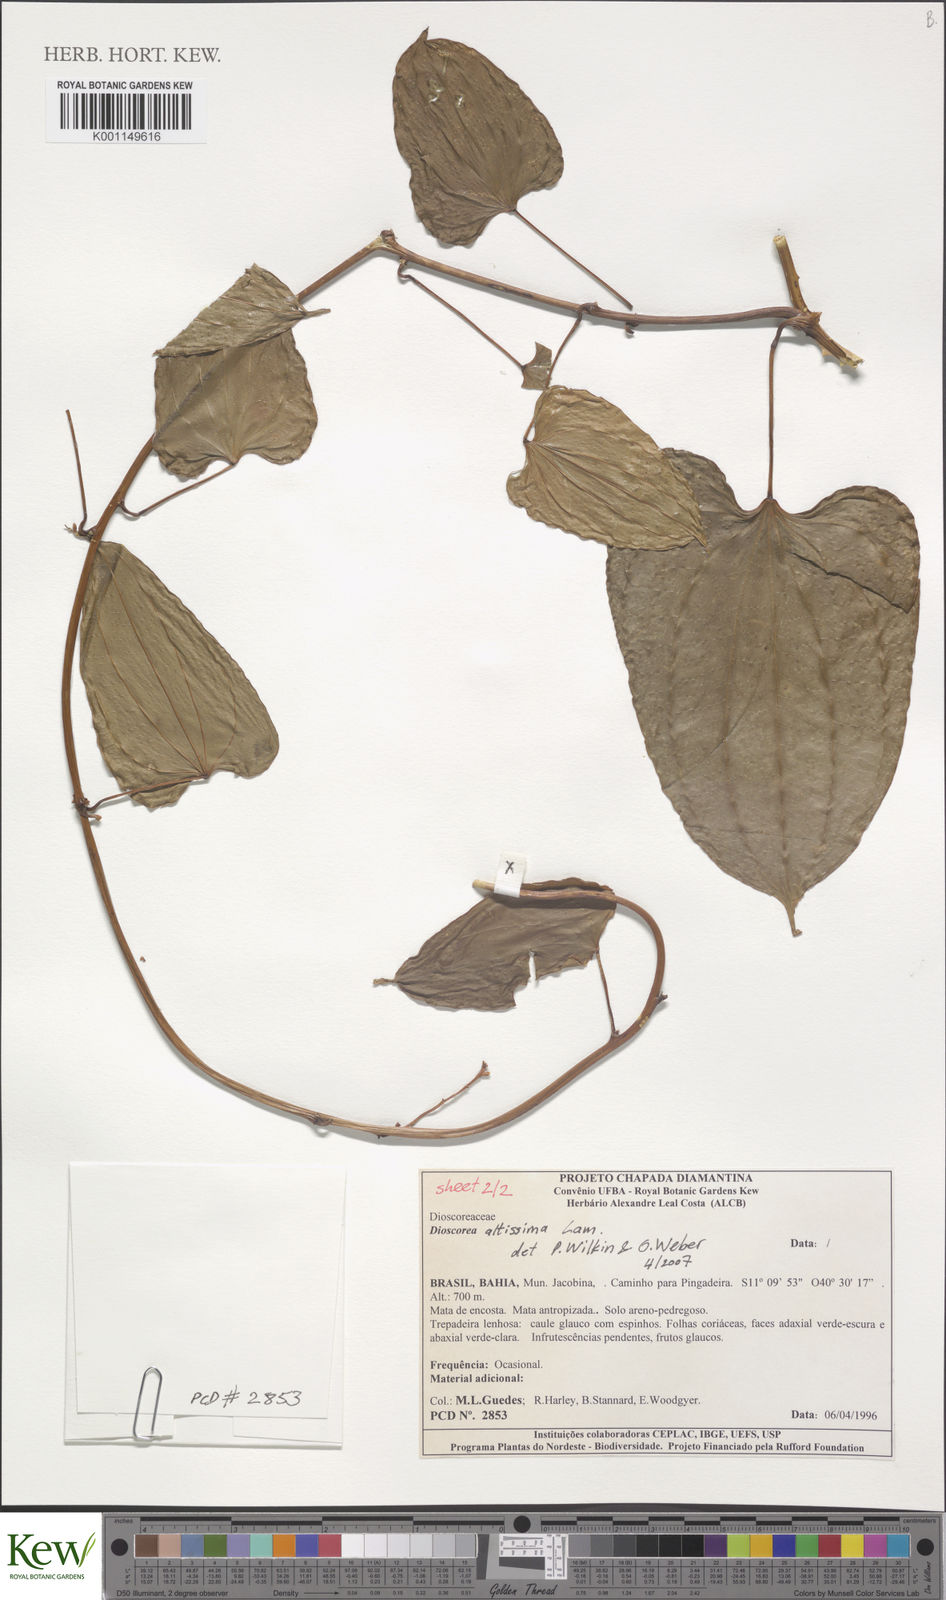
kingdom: Plantae
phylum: Tracheophyta
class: Liliopsida
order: Dioscoreales
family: Dioscoreaceae
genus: Dioscorea
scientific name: Dioscorea chondrocarpa
